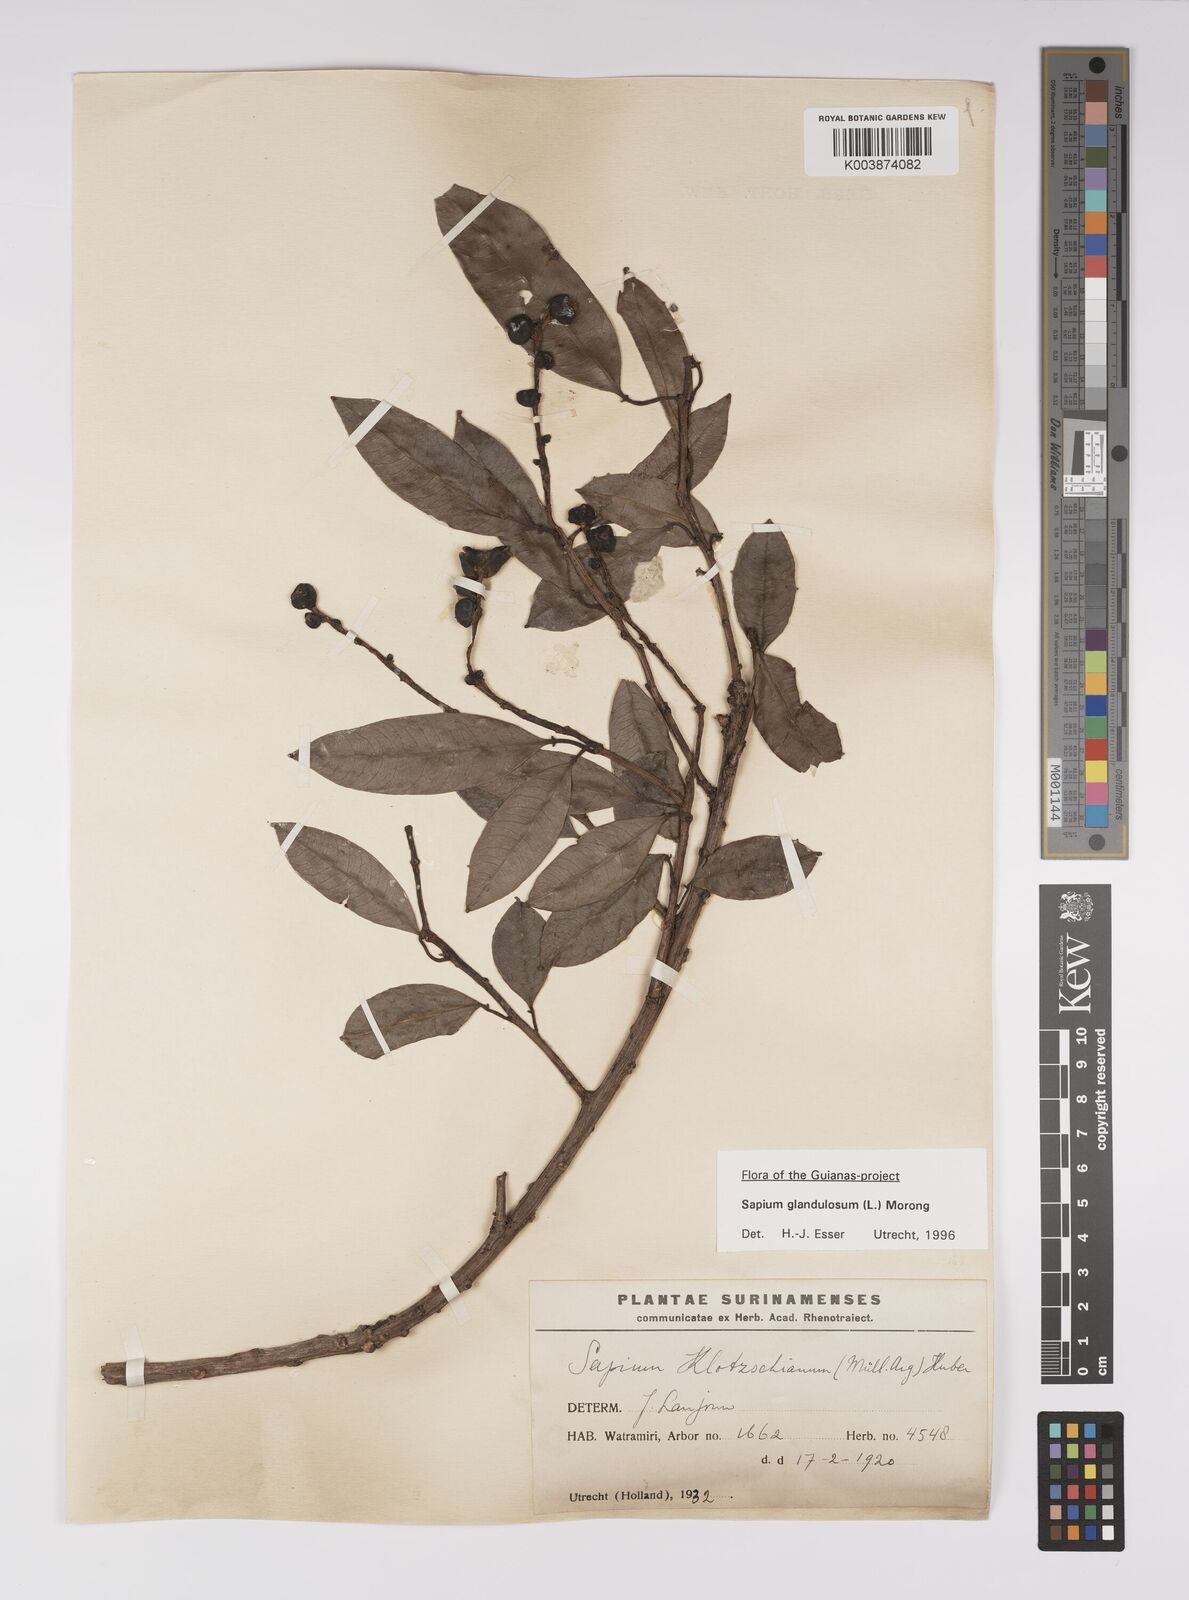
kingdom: Plantae
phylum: Tracheophyta
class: Magnoliopsida
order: Malpighiales
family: Euphorbiaceae
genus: Sapium
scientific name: Sapium glandulosum
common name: Milktree
